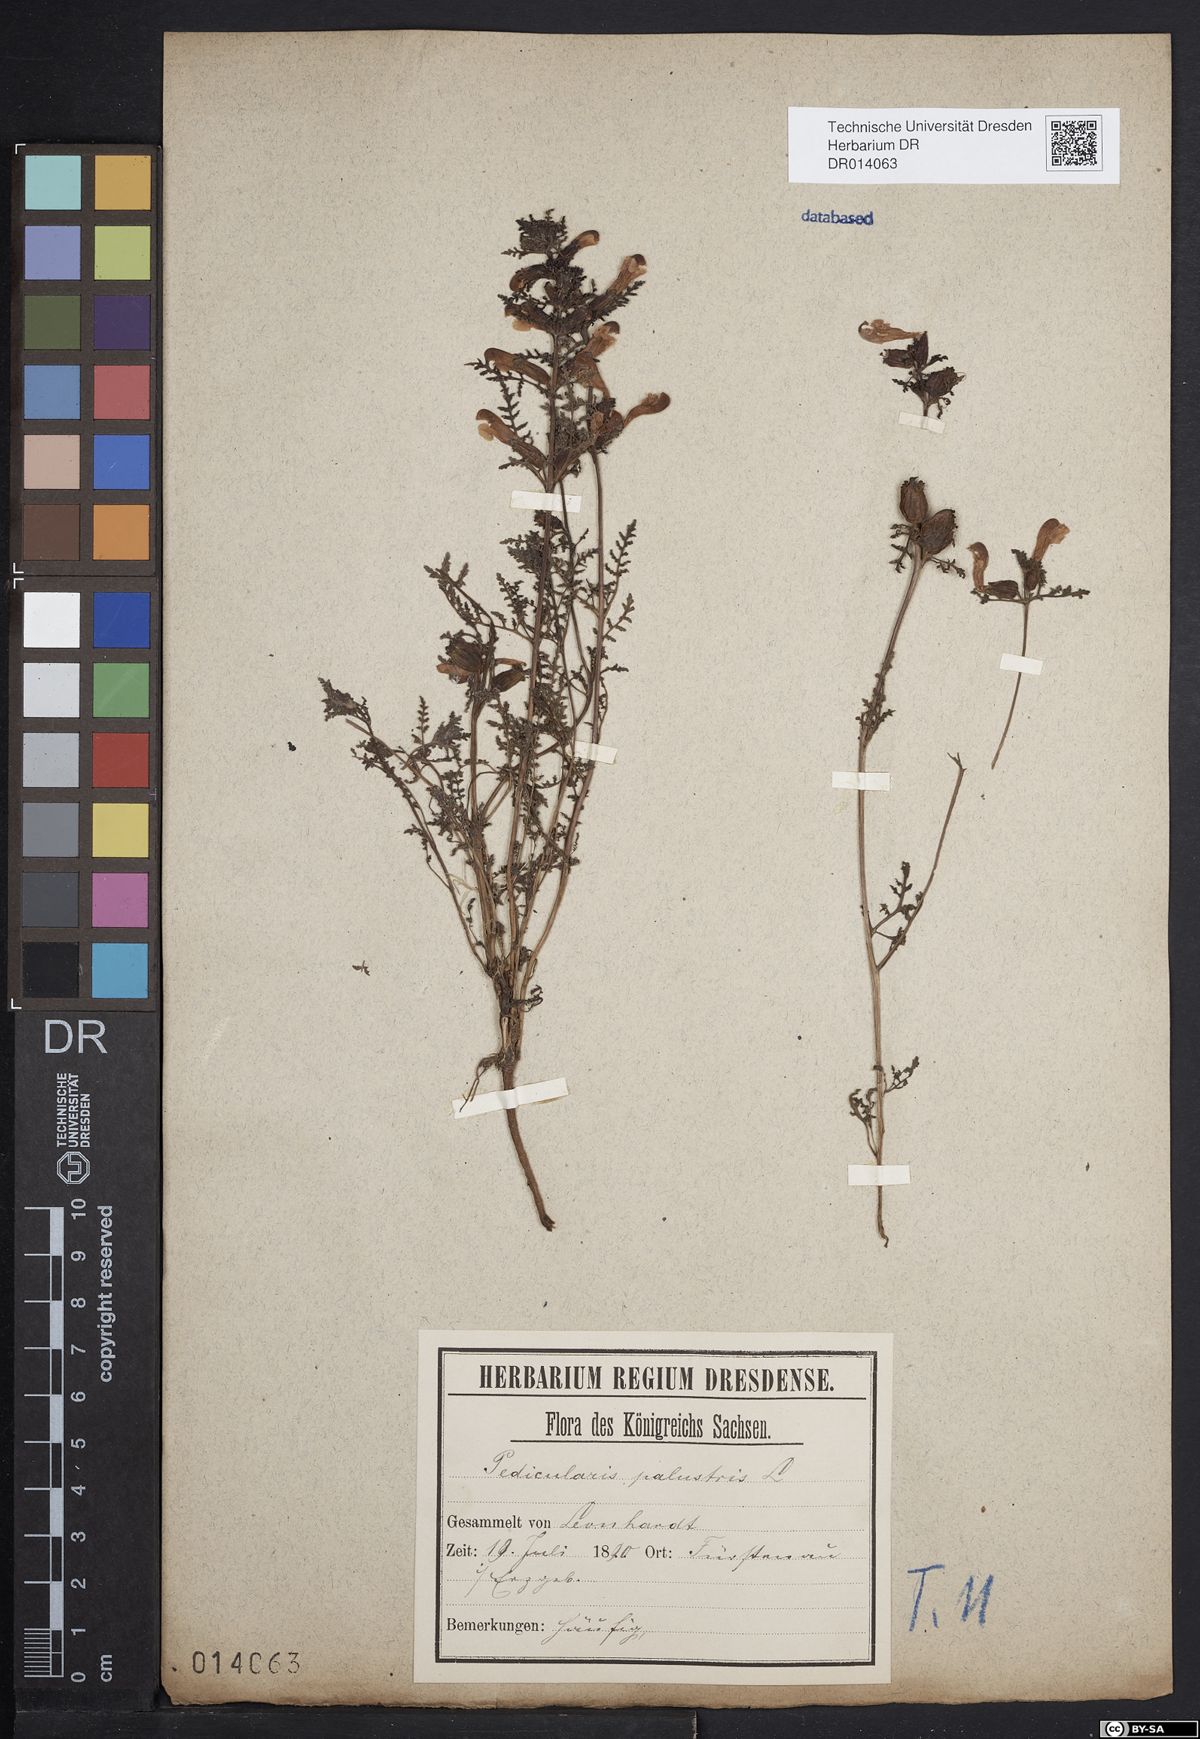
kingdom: Plantae
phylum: Tracheophyta
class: Magnoliopsida
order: Lamiales
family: Orobanchaceae
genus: Pedicularis
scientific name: Pedicularis palustris
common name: Marsh lousewort
